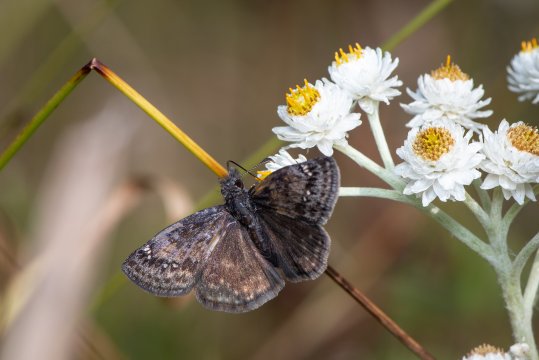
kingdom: Animalia
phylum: Arthropoda
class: Insecta
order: Lepidoptera
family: Hesperiidae
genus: Erynnis
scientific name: Erynnis
